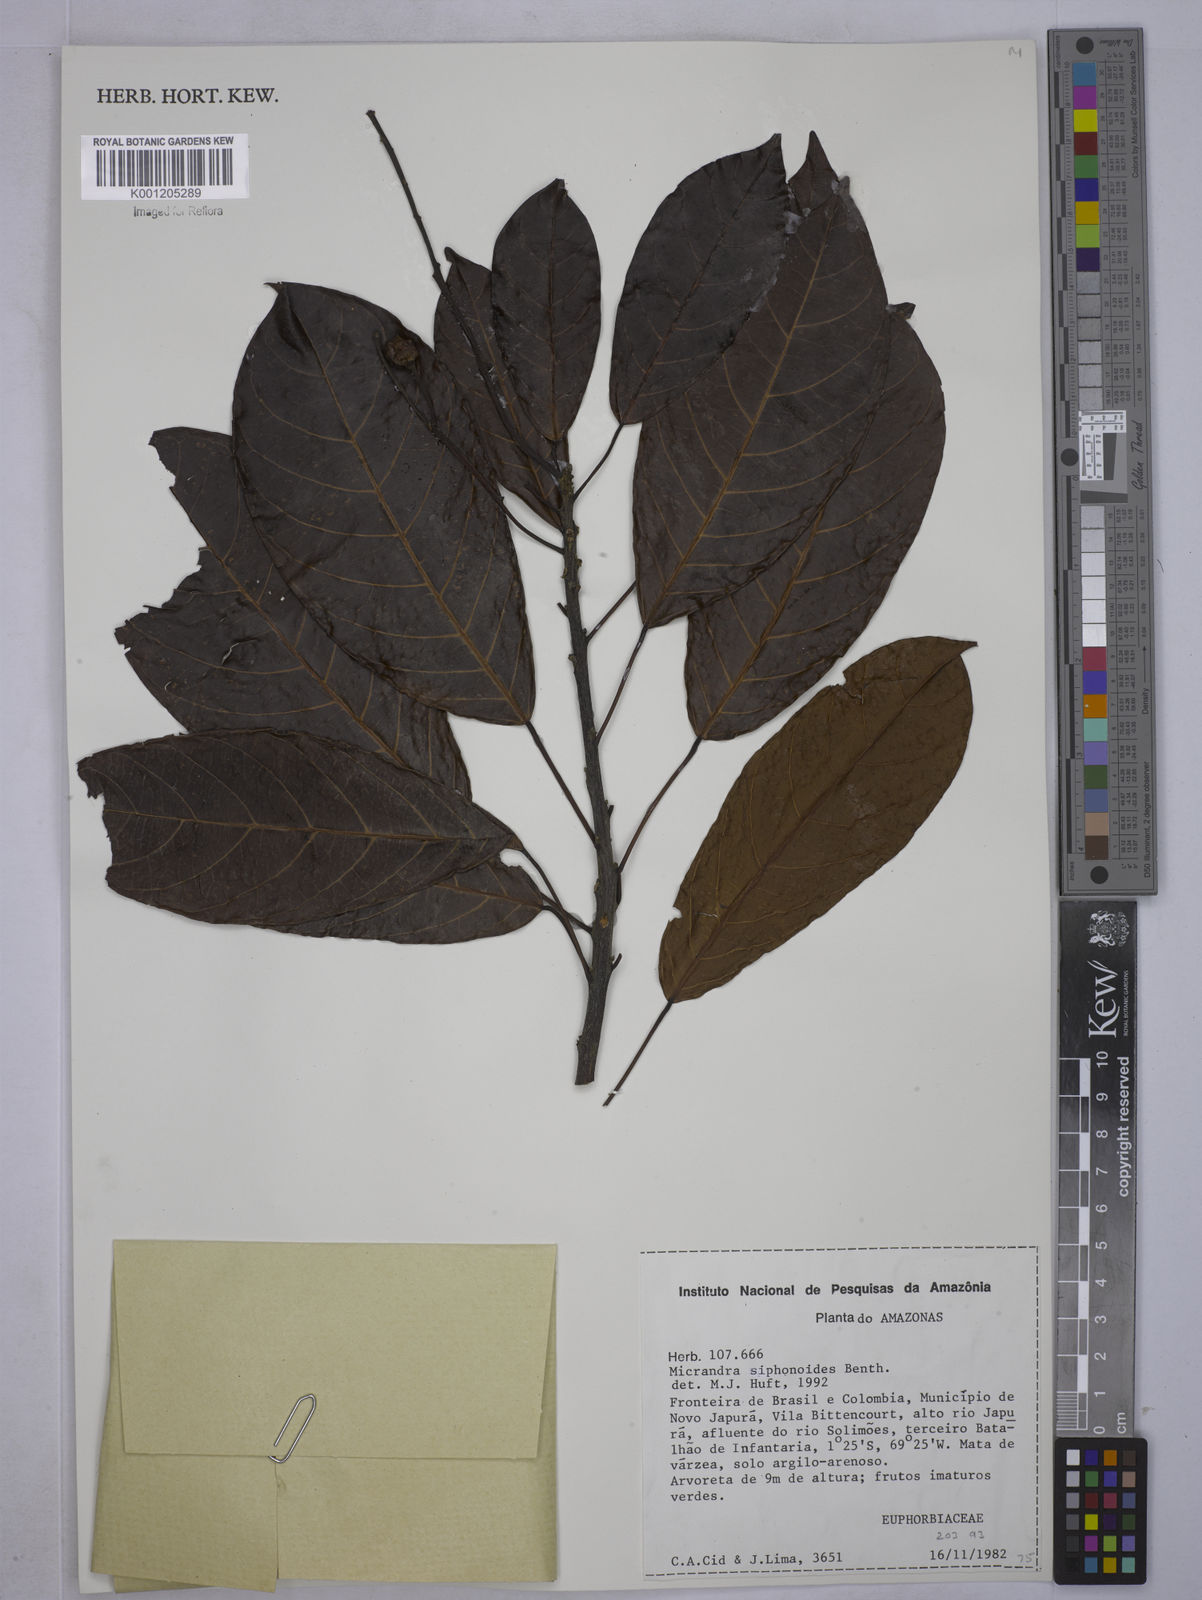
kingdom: Plantae
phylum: Tracheophyta
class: Magnoliopsida
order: Malpighiales
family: Euphorbiaceae
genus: Micrandra
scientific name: Micrandra siphonioides
